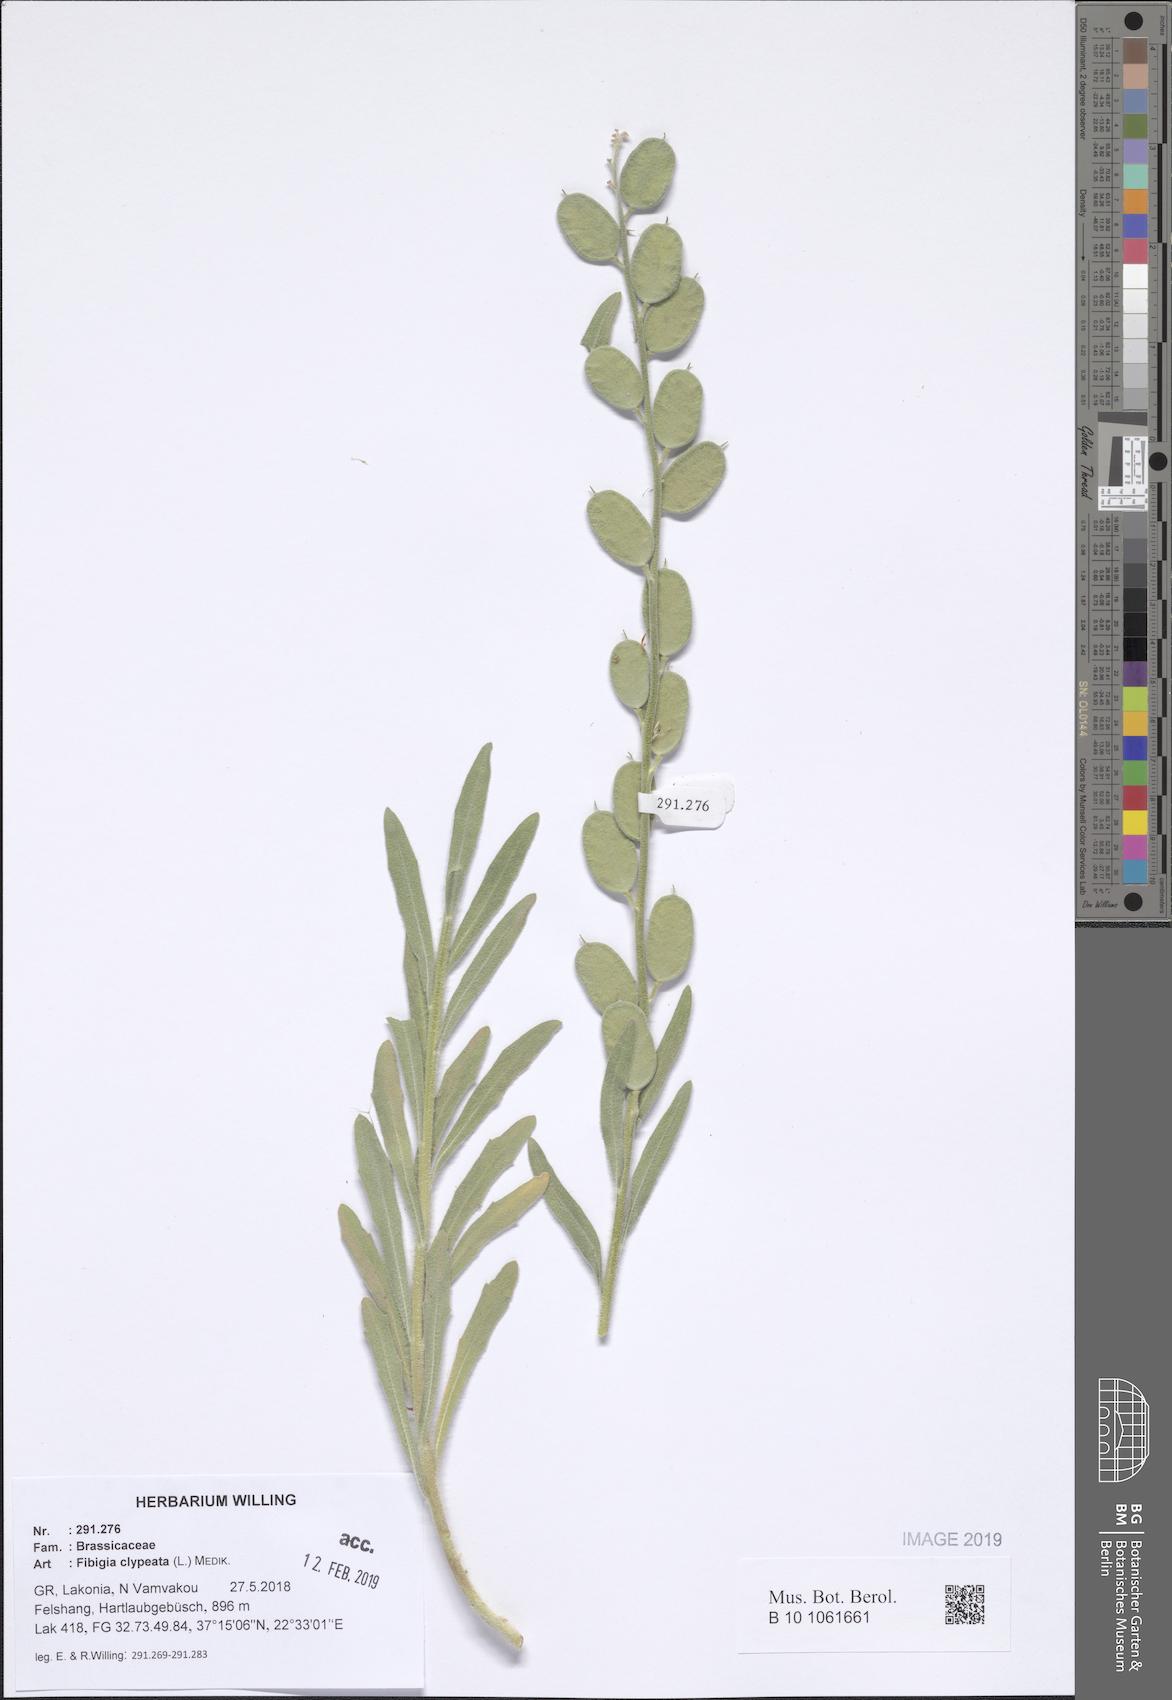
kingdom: Plantae
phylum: Tracheophyta
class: Magnoliopsida
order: Brassicales
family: Brassicaceae
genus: Fibigia
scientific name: Fibigia clypeata
